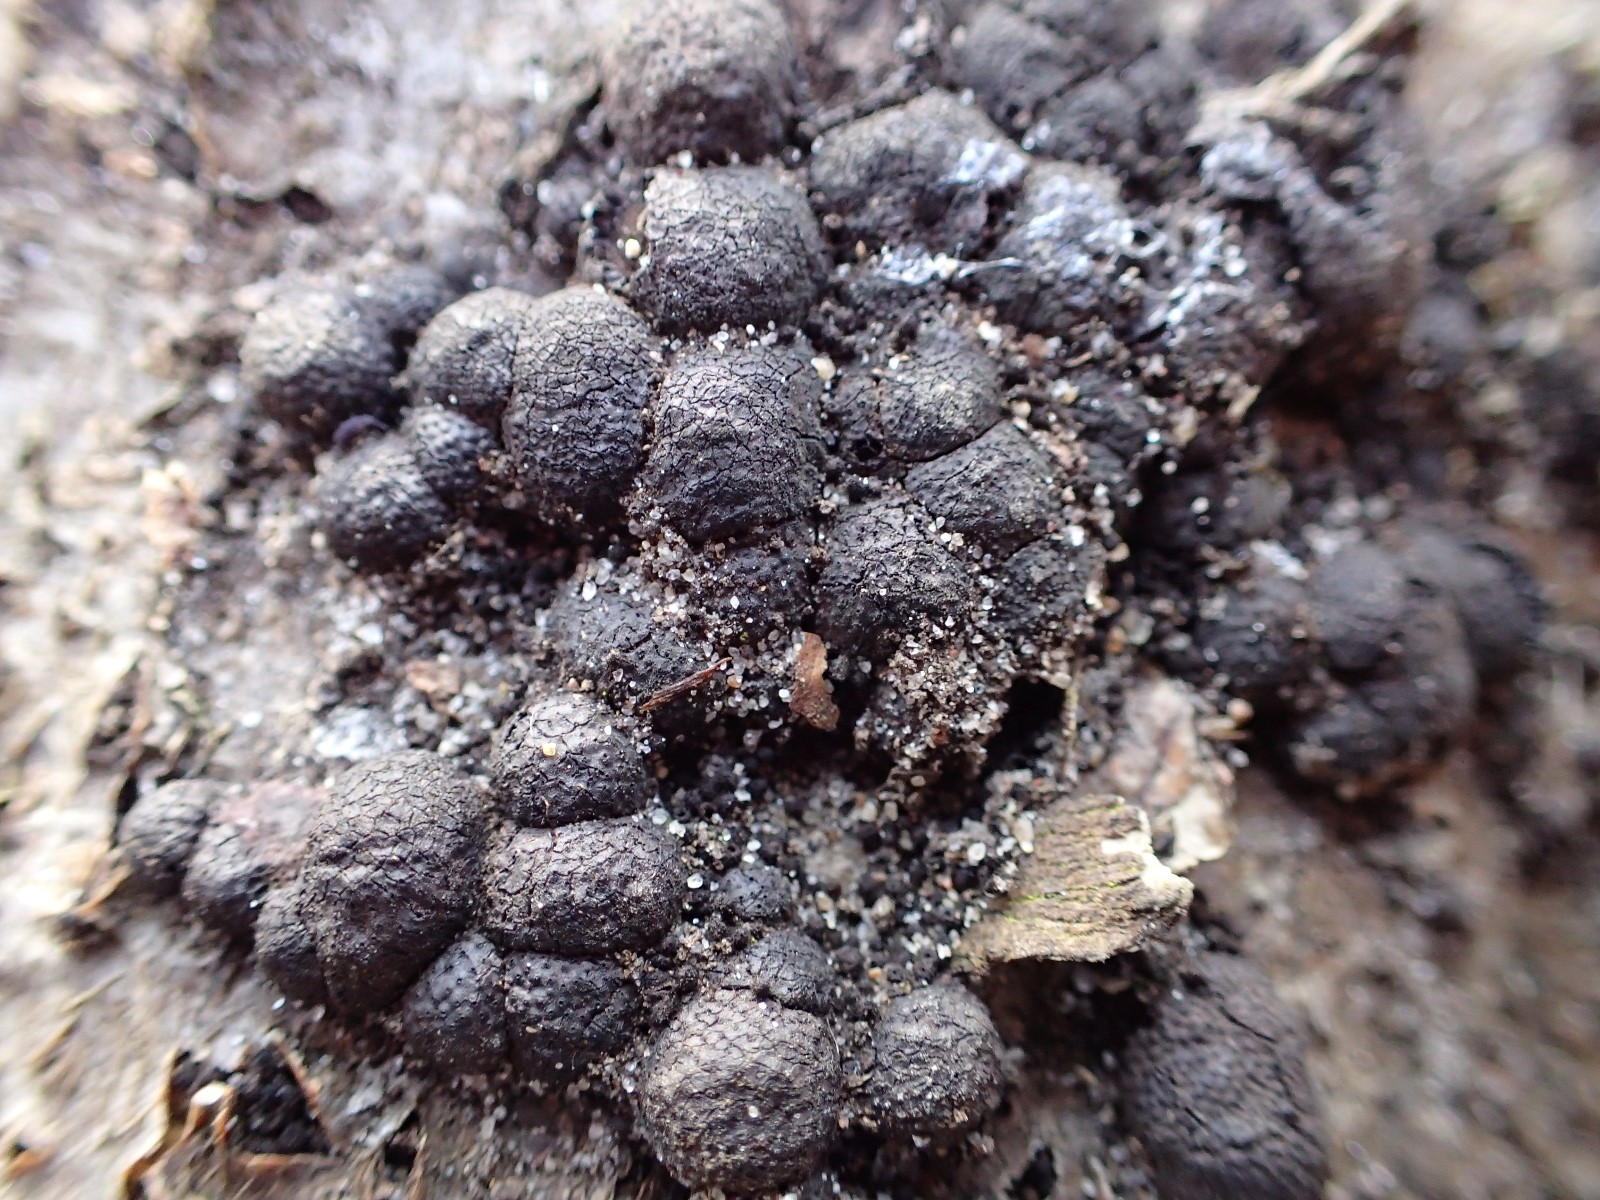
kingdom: Fungi
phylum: Ascomycota
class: Sordariomycetes
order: Xylariales
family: Hypoxylaceae
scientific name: Hypoxylaceae
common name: kulbærfamilien
